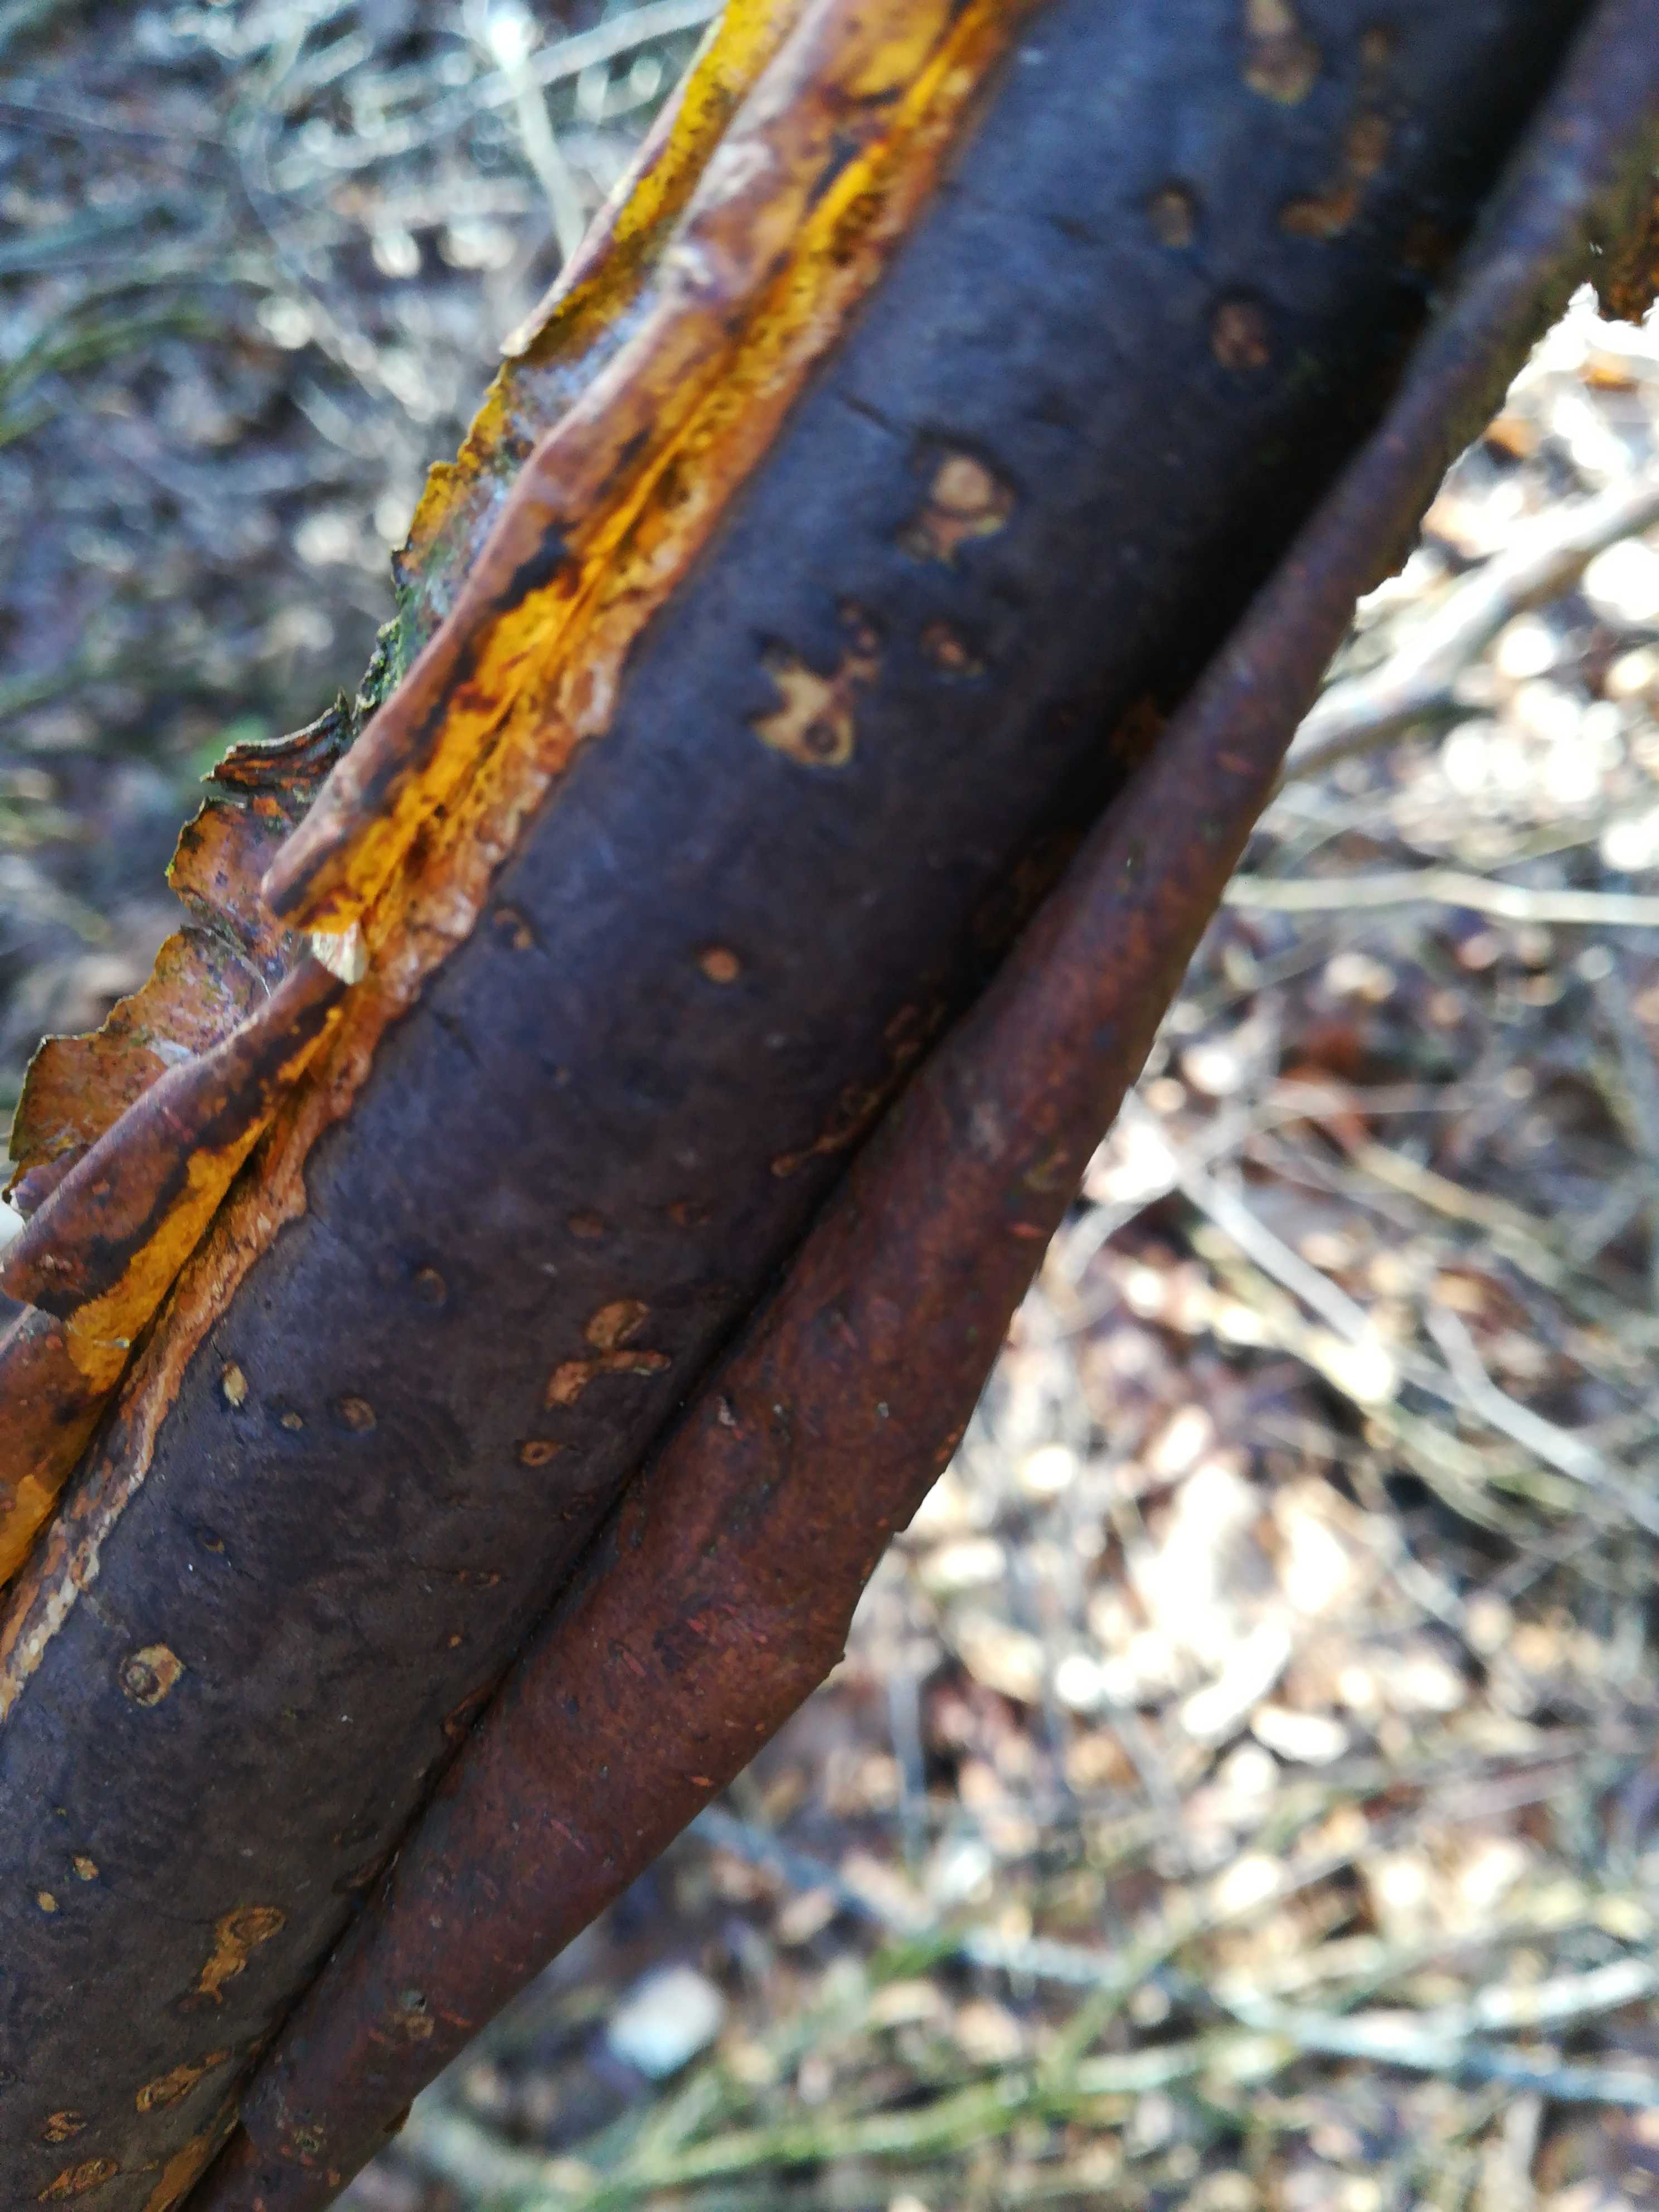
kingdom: Fungi
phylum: Ascomycota
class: Sordariomycetes
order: Xylariales
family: Diatrypaceae
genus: Diatrype
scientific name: Diatrype decorticata
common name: barksprænger-kulskorpe
